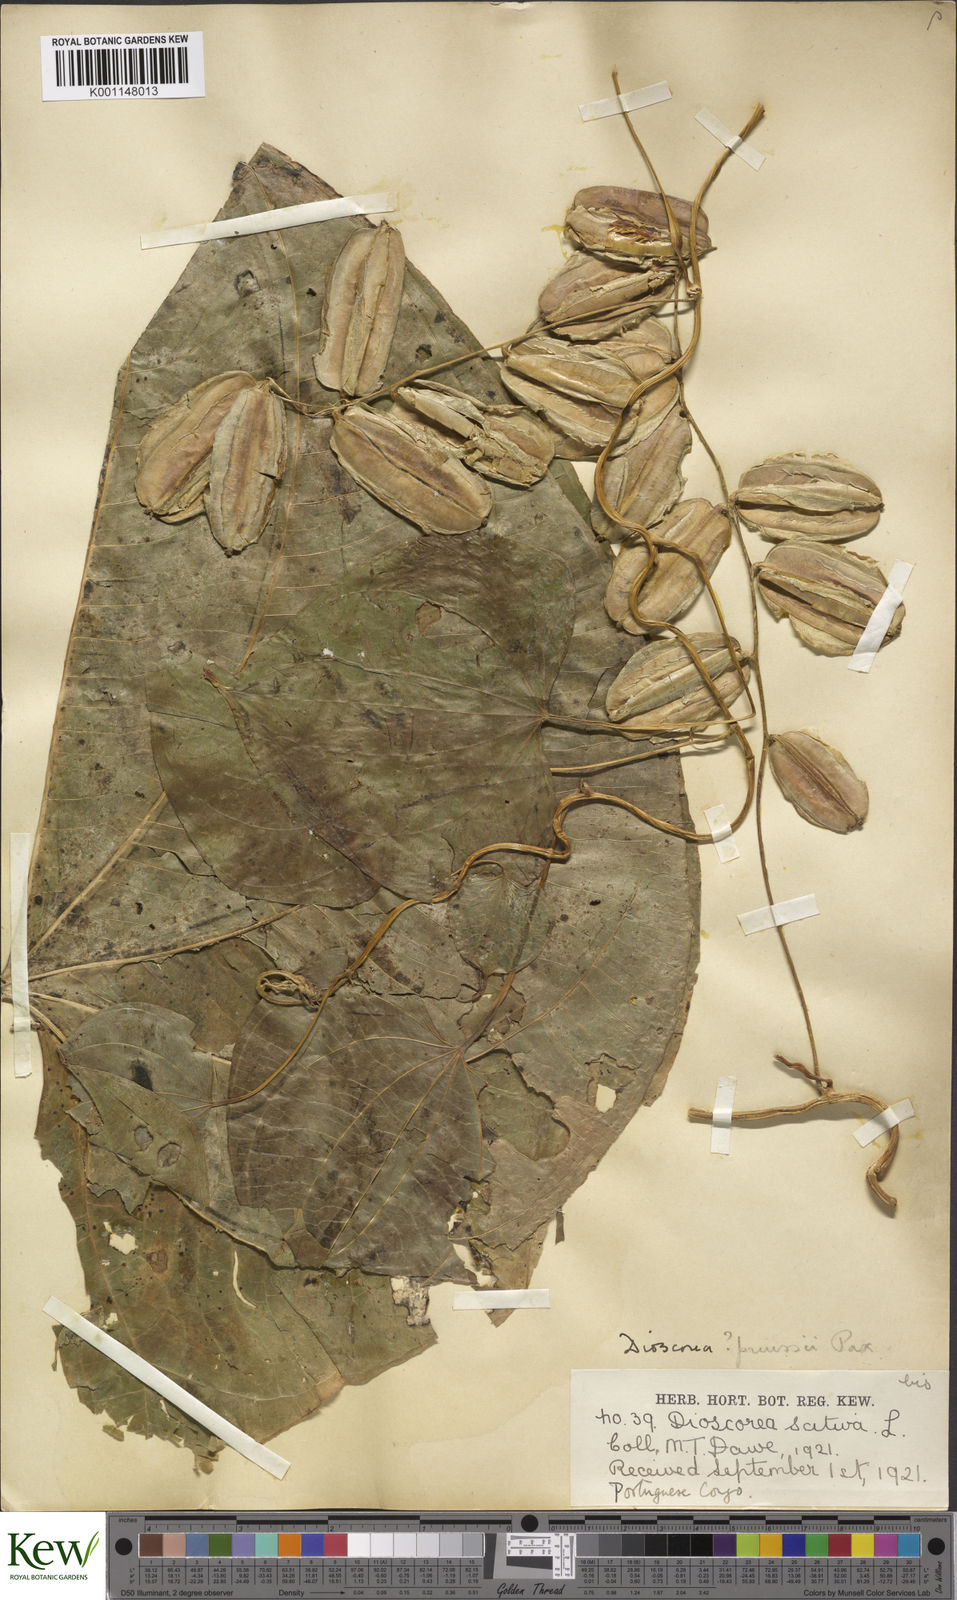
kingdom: Plantae
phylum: Tracheophyta
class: Liliopsida
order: Dioscoreales
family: Dioscoreaceae
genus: Dioscorea
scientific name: Dioscorea preussii
